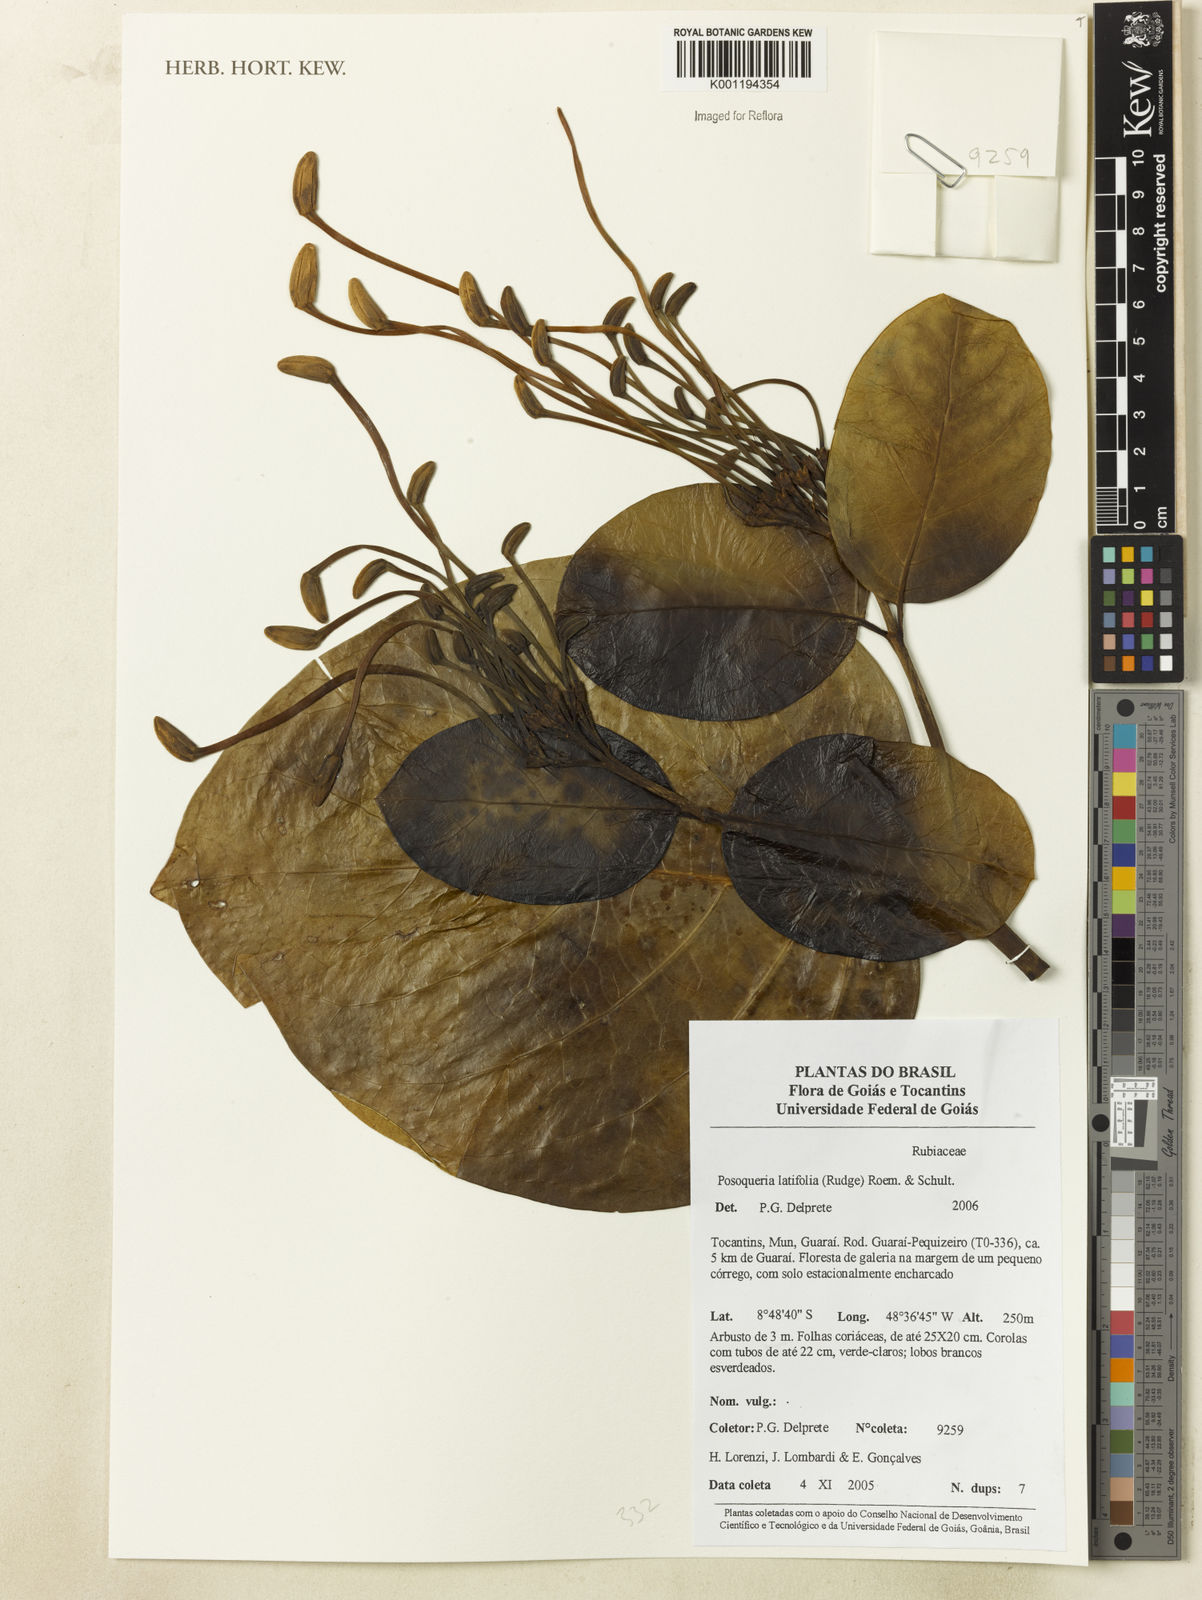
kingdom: Plantae
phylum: Tracheophyta
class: Magnoliopsida
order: Gentianales
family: Rubiaceae
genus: Posoqueria
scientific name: Posoqueria latifolia
